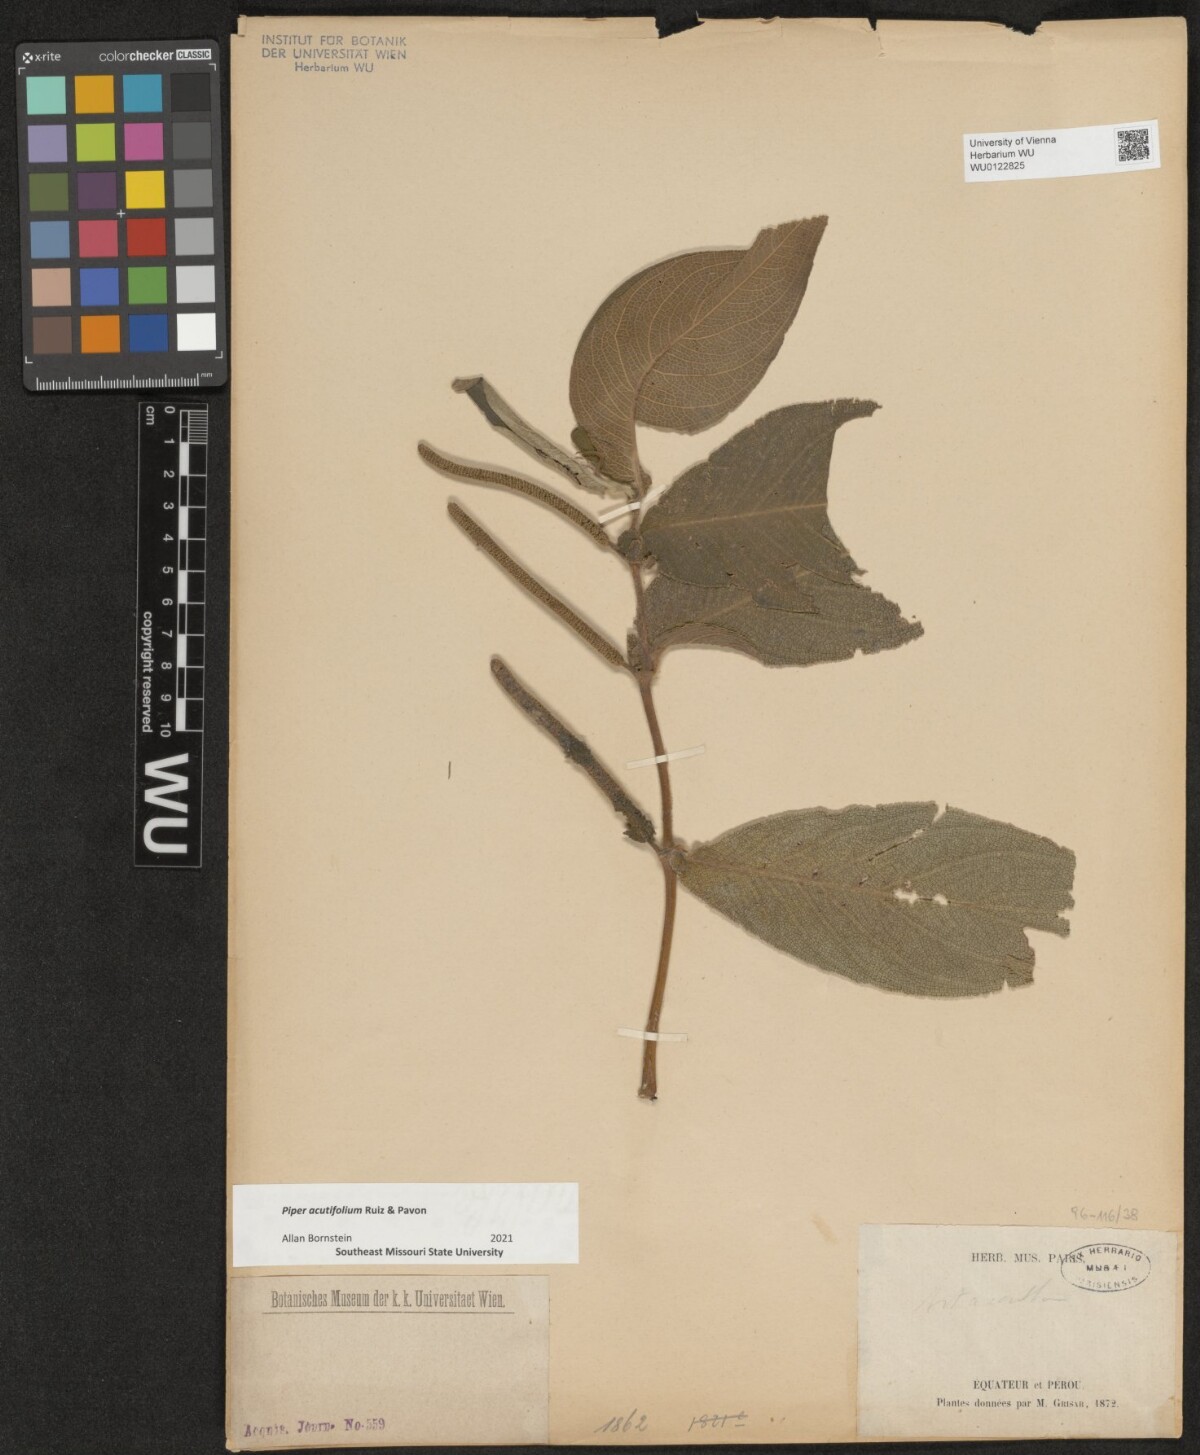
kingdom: Plantae
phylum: Tracheophyta
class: Magnoliopsida
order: Piperales
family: Piperaceae
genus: Piper
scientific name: Piper mollicomum
